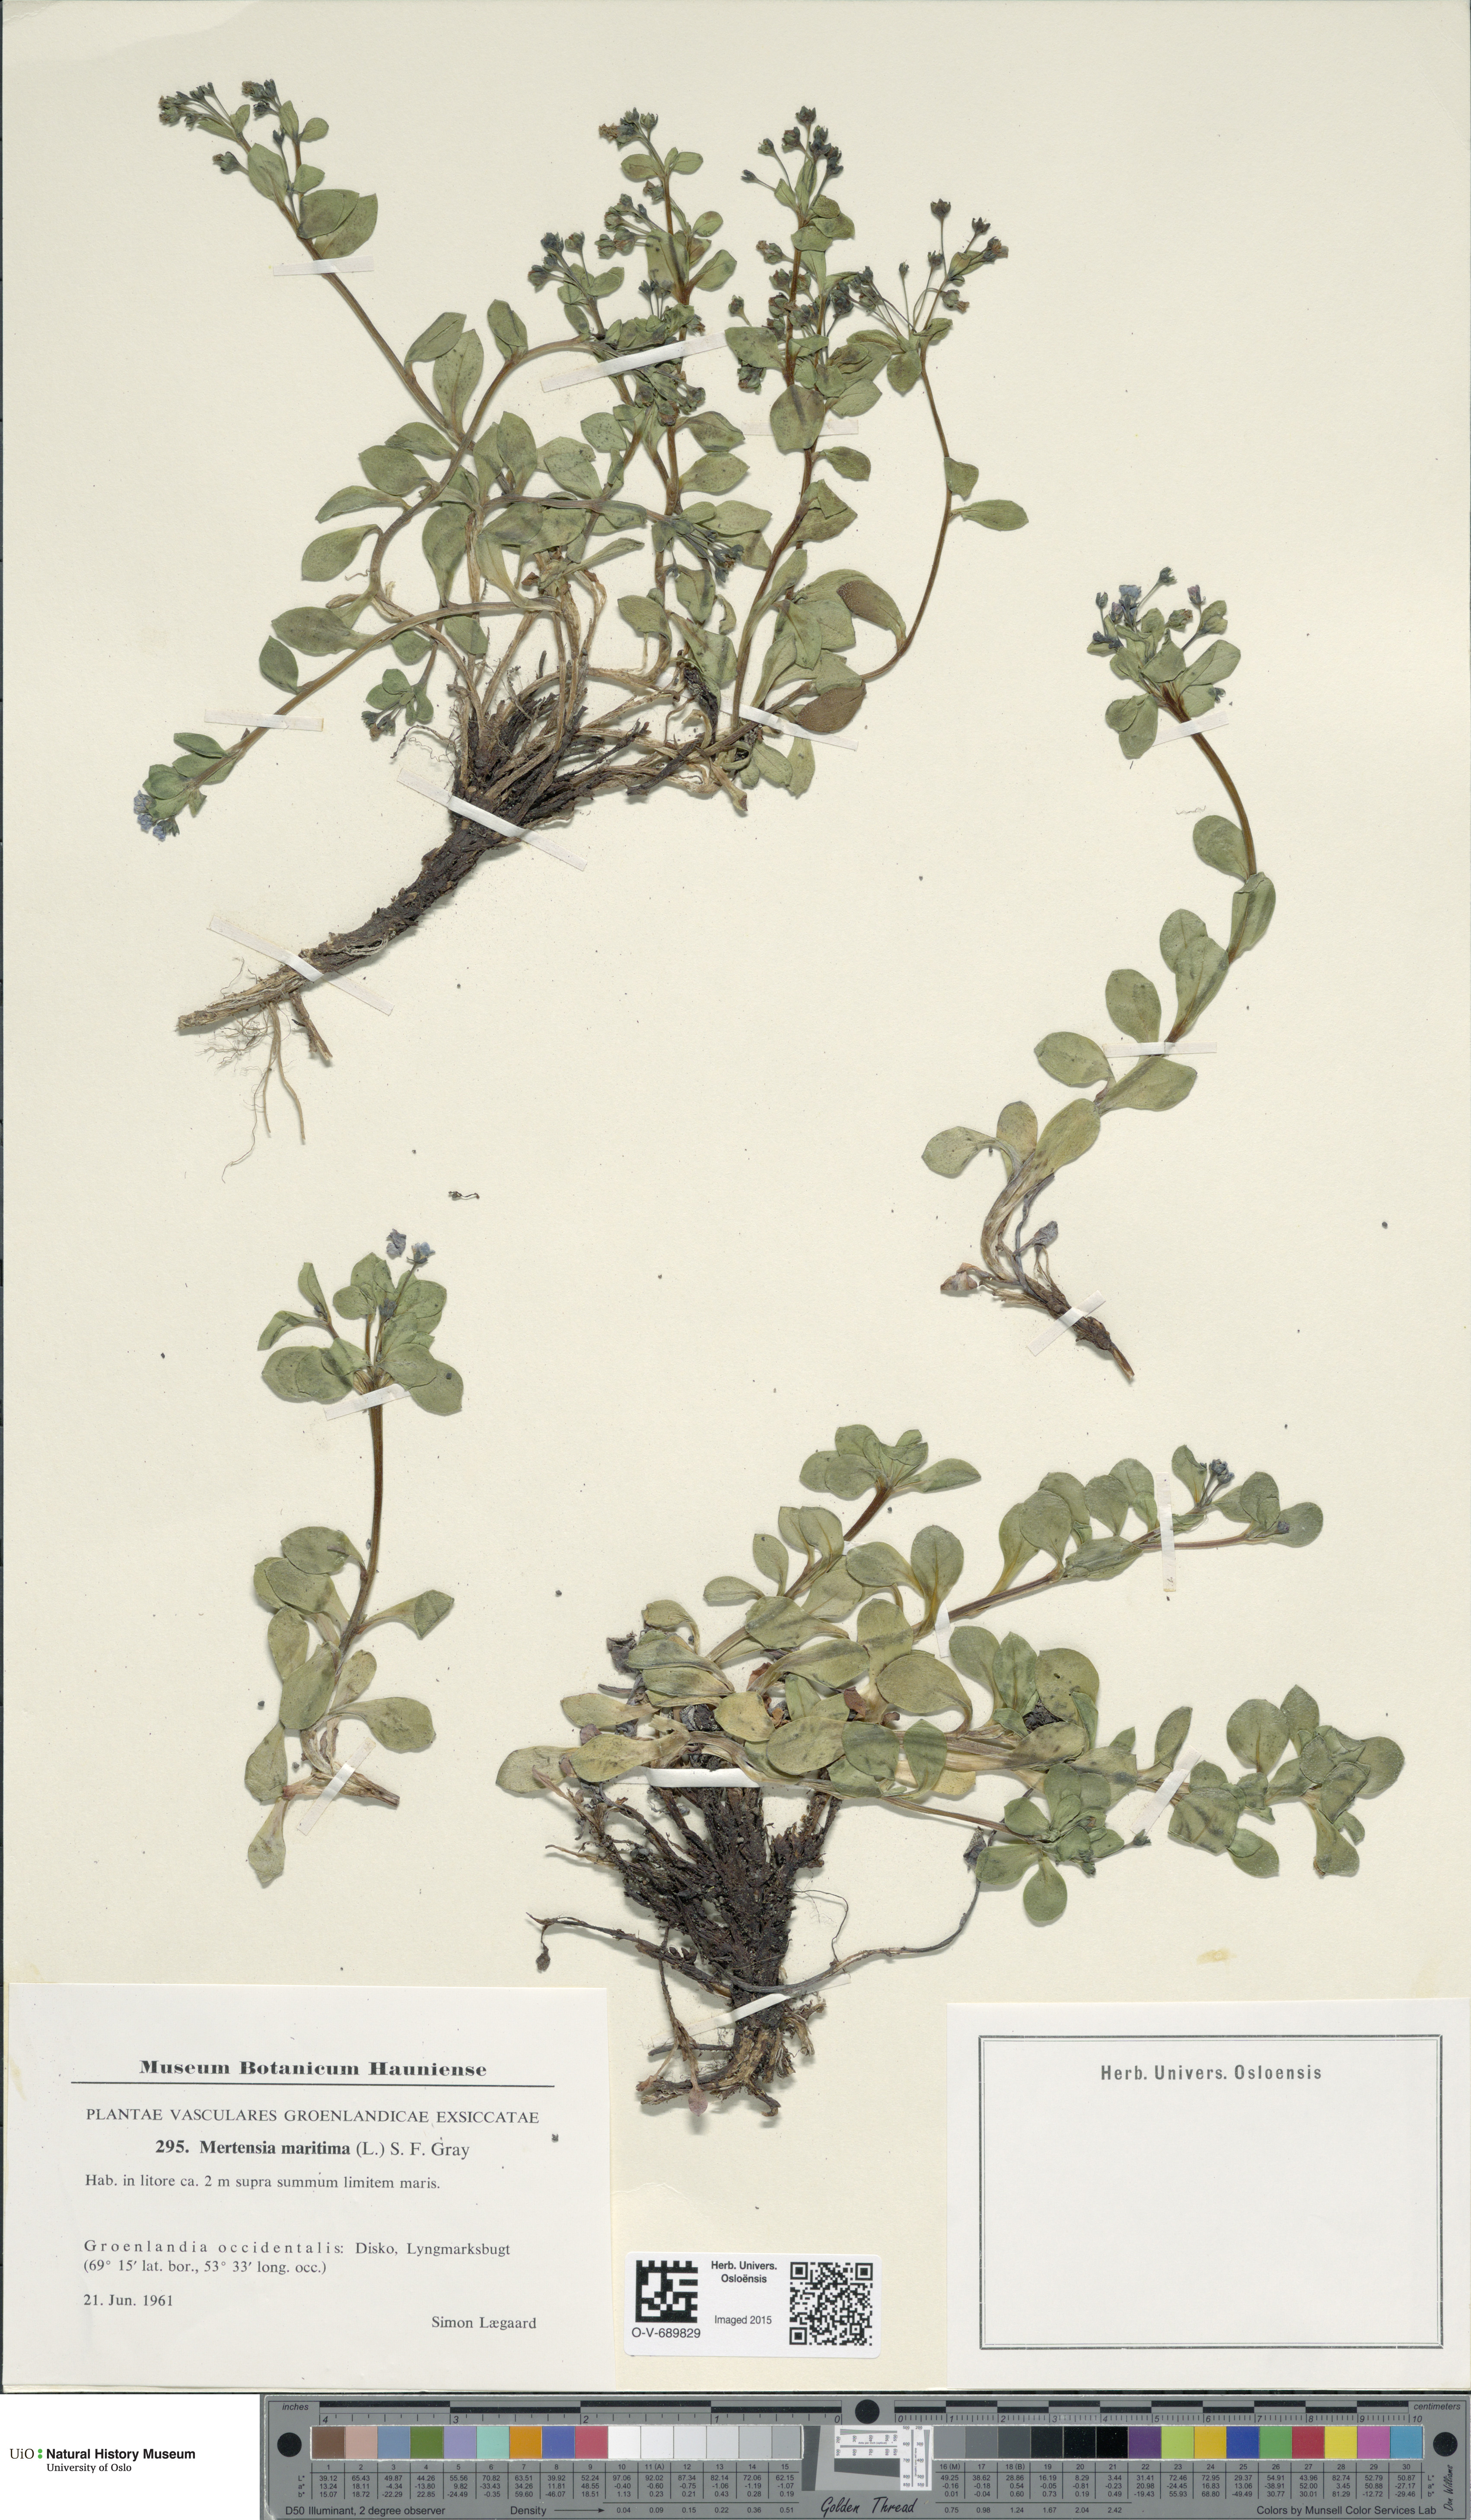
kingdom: Plantae
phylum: Tracheophyta
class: Magnoliopsida
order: Boraginales
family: Boraginaceae
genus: Mertensia
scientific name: Mertensia maritima
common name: Oysterplant
